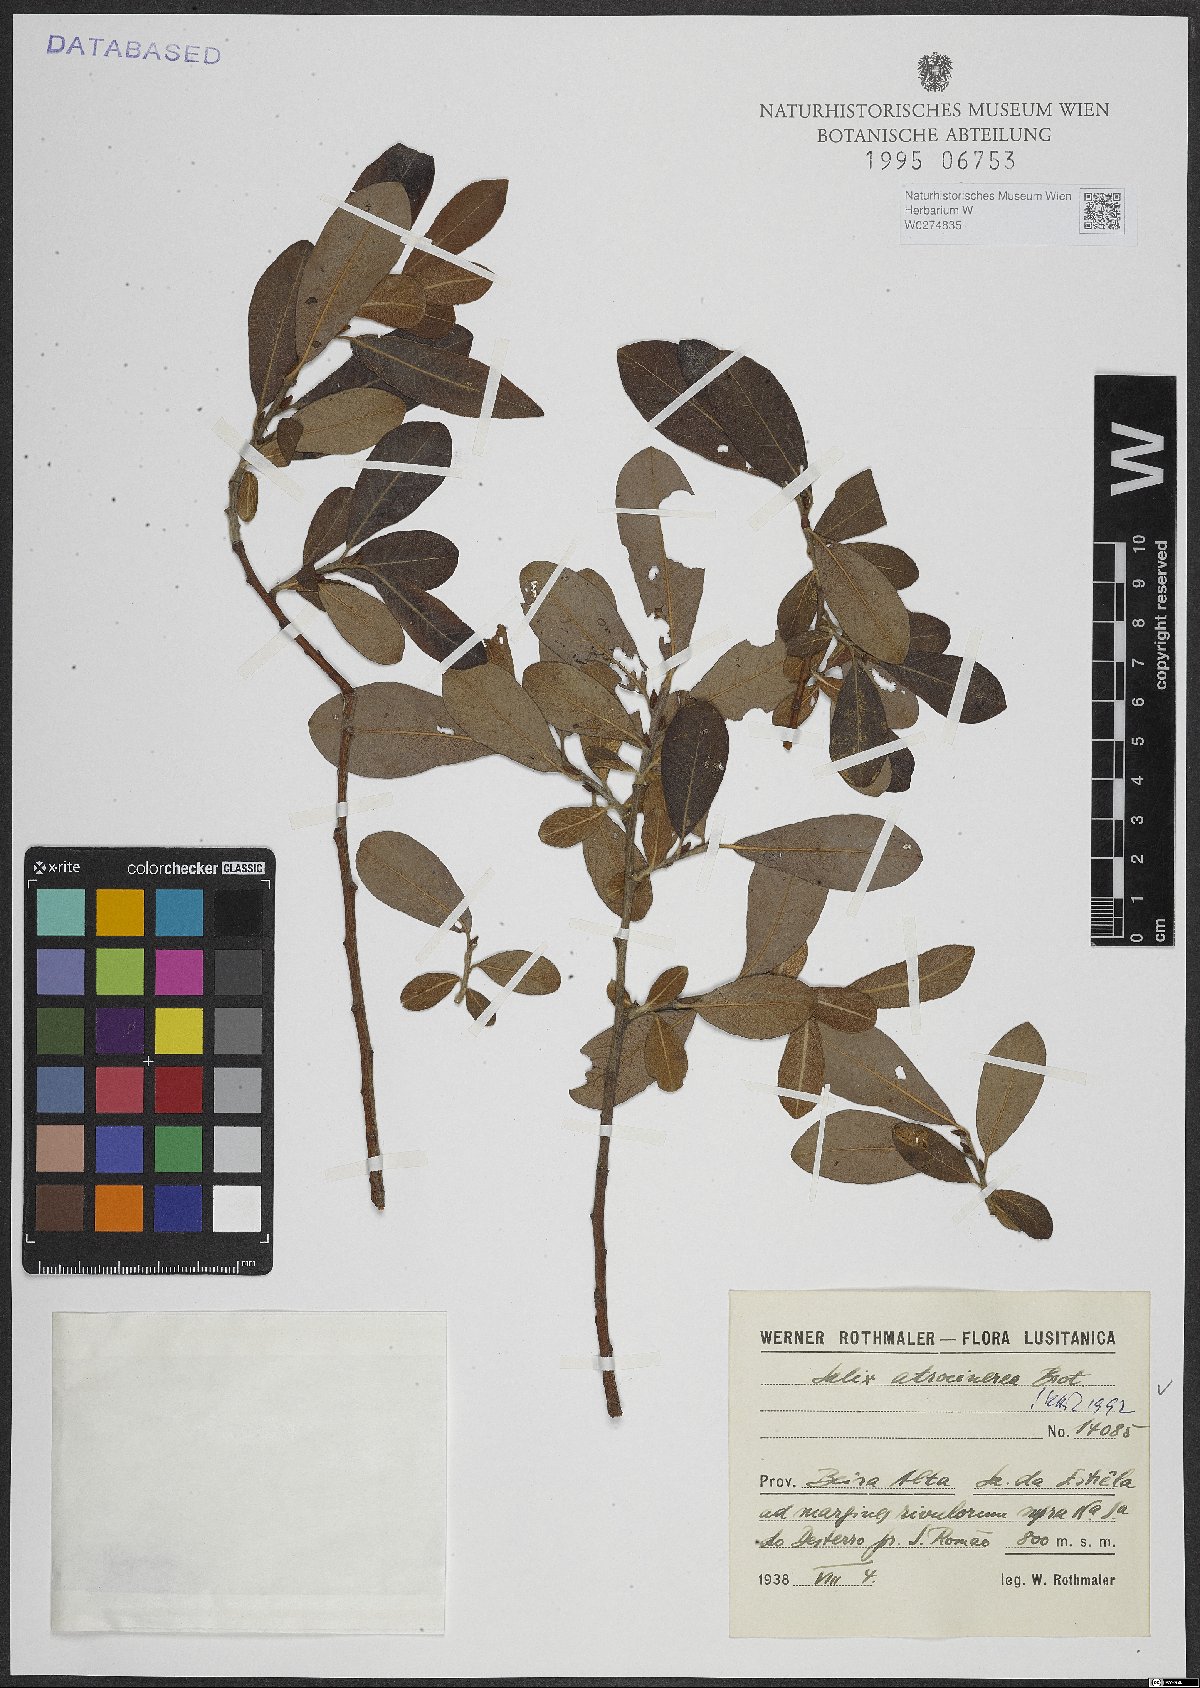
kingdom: Plantae
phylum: Tracheophyta
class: Magnoliopsida
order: Malpighiales
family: Salicaceae
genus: Salix
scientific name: Salix atrocinerea
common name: Rusty willow
